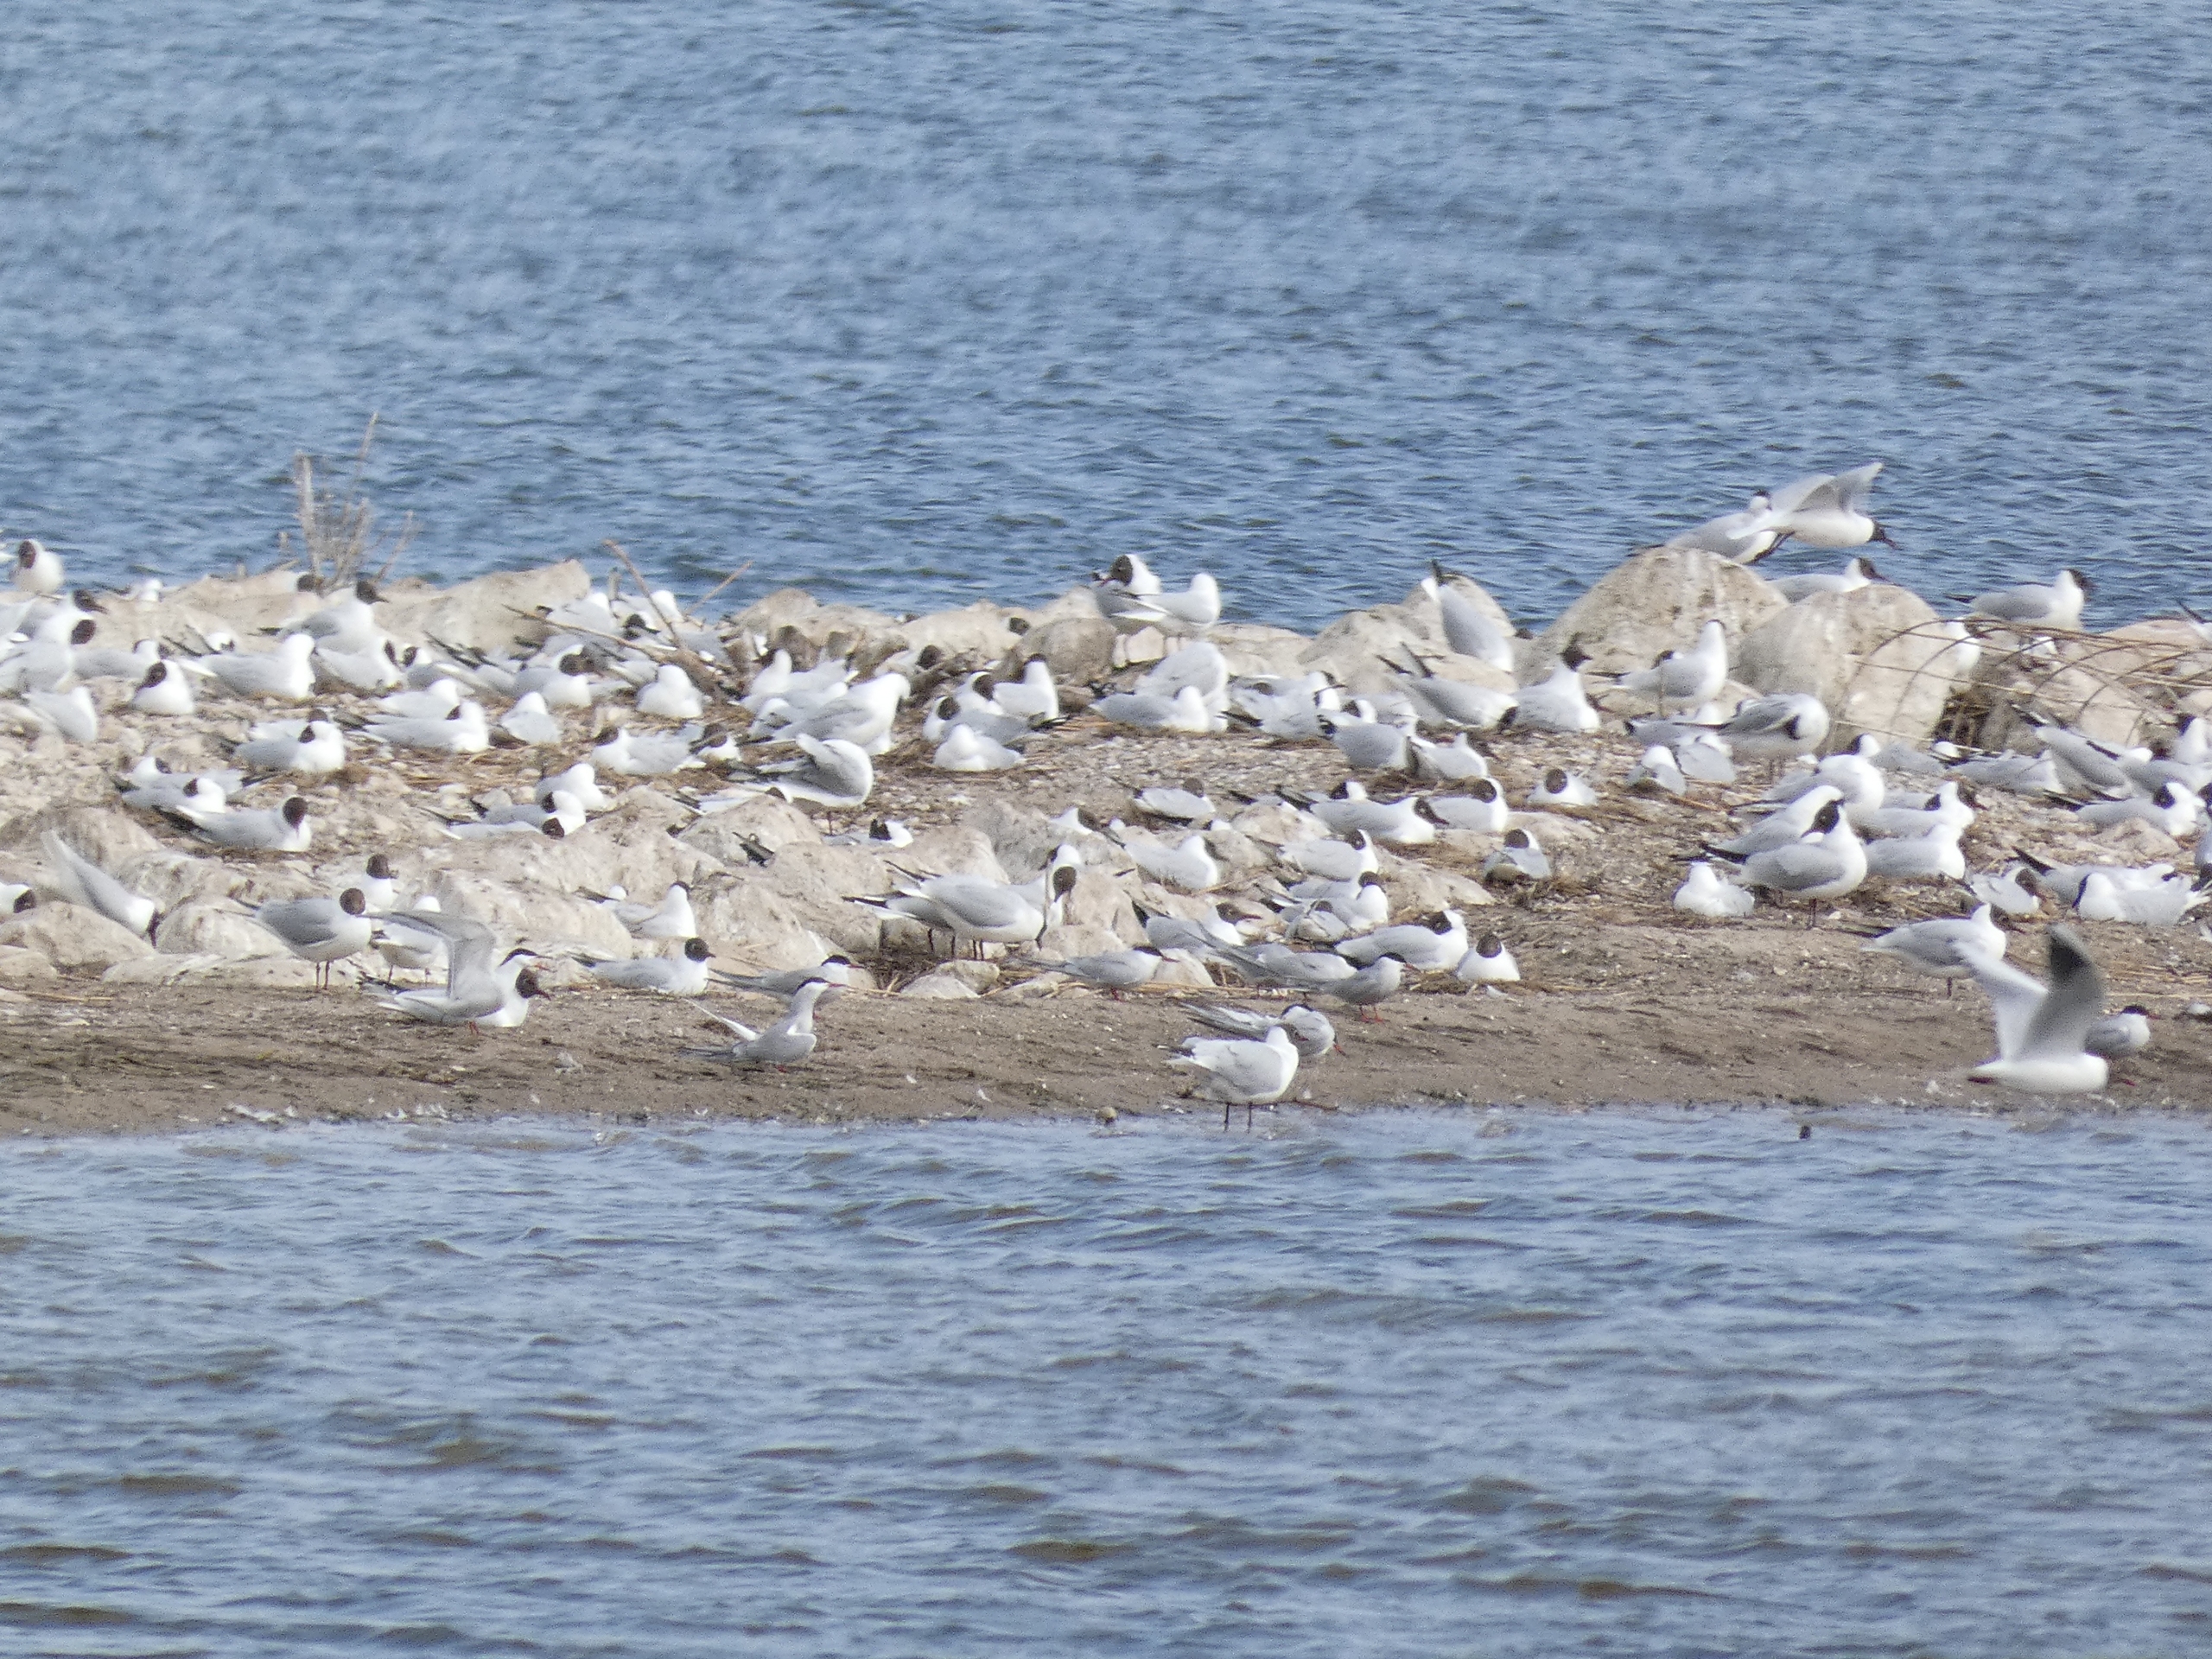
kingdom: Animalia
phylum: Chordata
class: Aves
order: Charadriiformes
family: Laridae
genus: Chroicocephalus
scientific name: Chroicocephalus ridibundus
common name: Hættemåge
